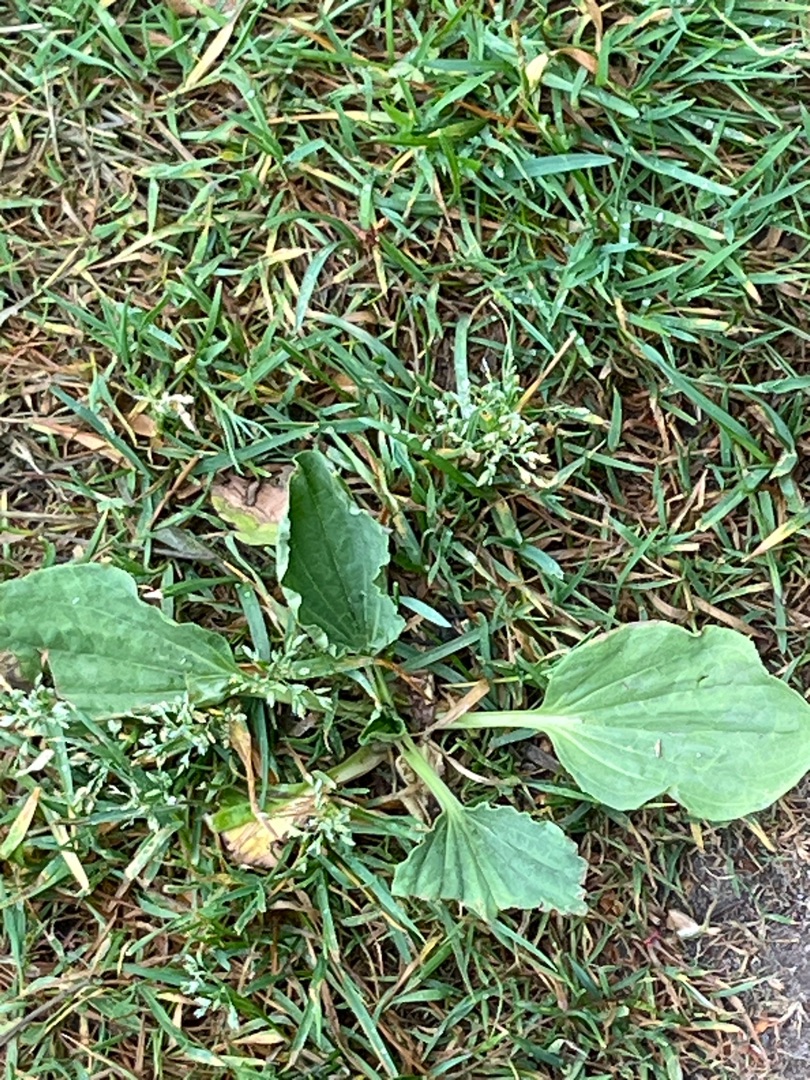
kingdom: Plantae
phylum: Tracheophyta
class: Magnoliopsida
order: Lamiales
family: Plantaginaceae
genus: Plantago
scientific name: Plantago major
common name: Glat vejbred
